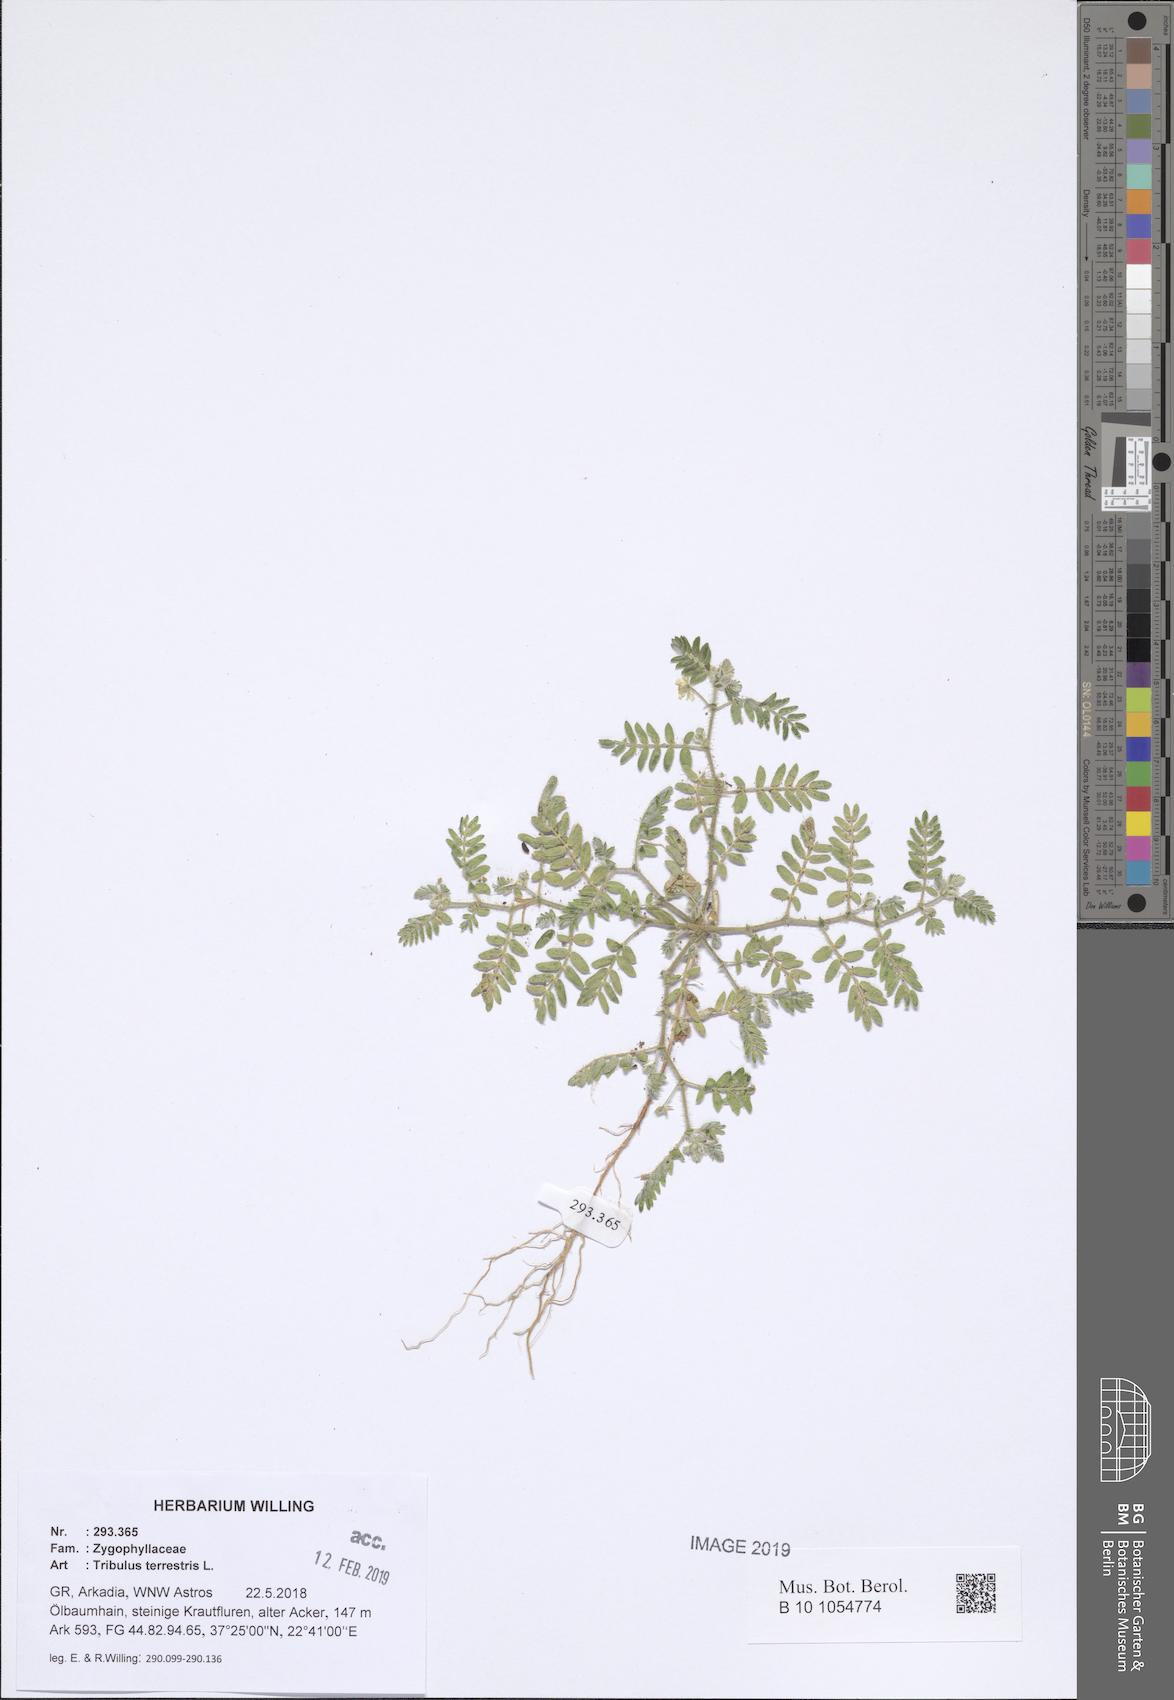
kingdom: Plantae
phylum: Tracheophyta
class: Magnoliopsida
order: Zygophyllales
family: Zygophyllaceae
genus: Tribulus
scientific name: Tribulus terrestris
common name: Puncturevine
